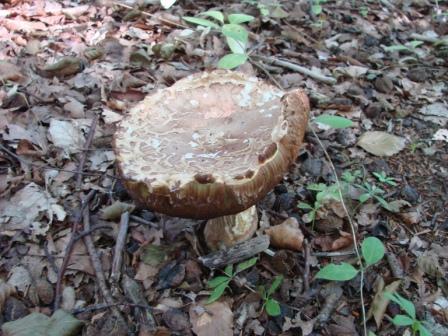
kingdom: Fungi
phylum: Basidiomycota
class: Agaricomycetes
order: Boletales
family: Boletaceae
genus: Boletus
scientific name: Boletus reticulatus
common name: sommer-rørhat
